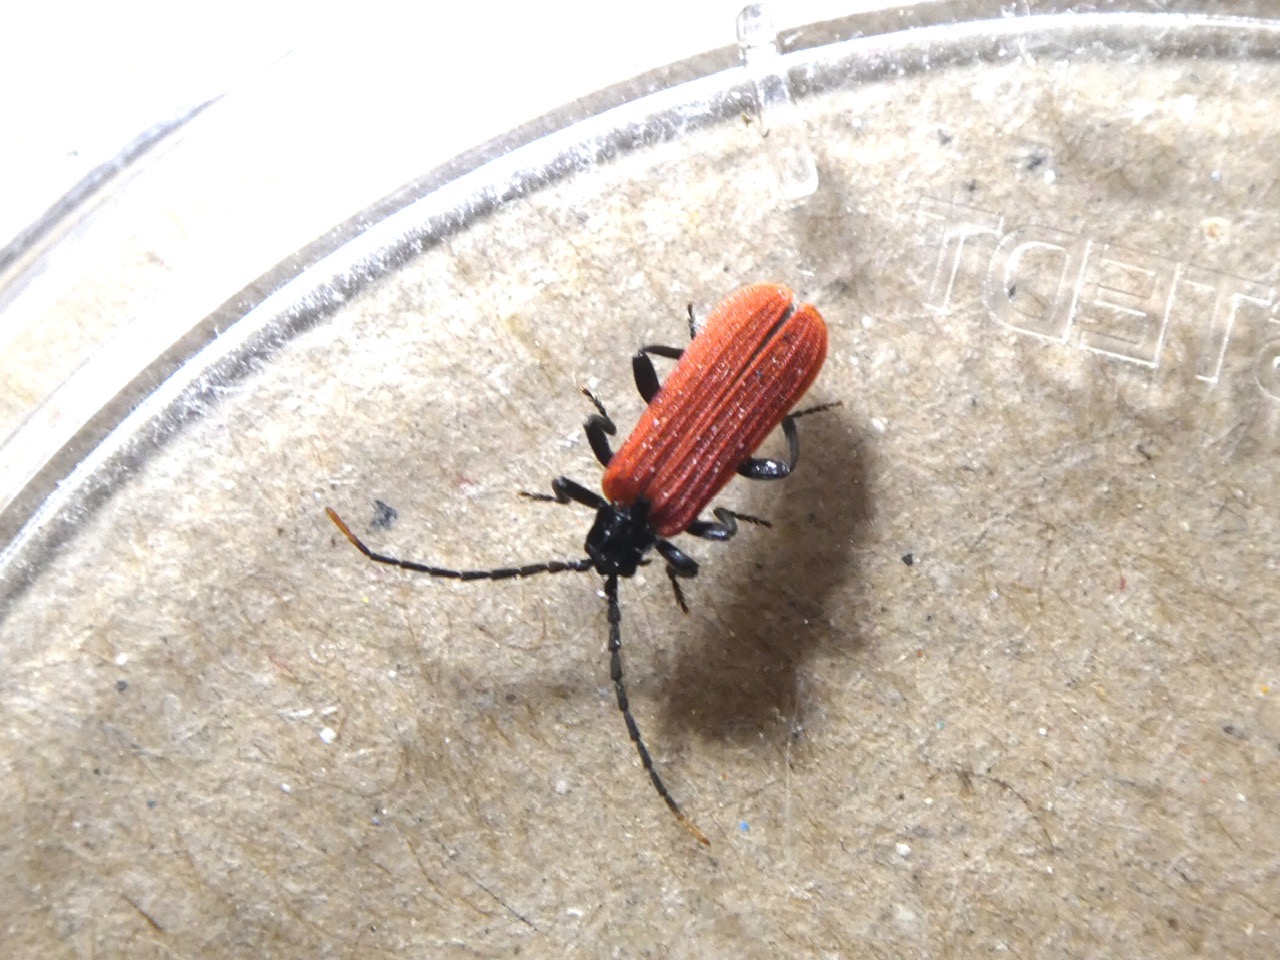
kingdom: Animalia
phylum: Arthropoda
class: Insecta
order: Coleoptera
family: Lycidae
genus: Platycis
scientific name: Platycis minutus
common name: Lille maskebille
